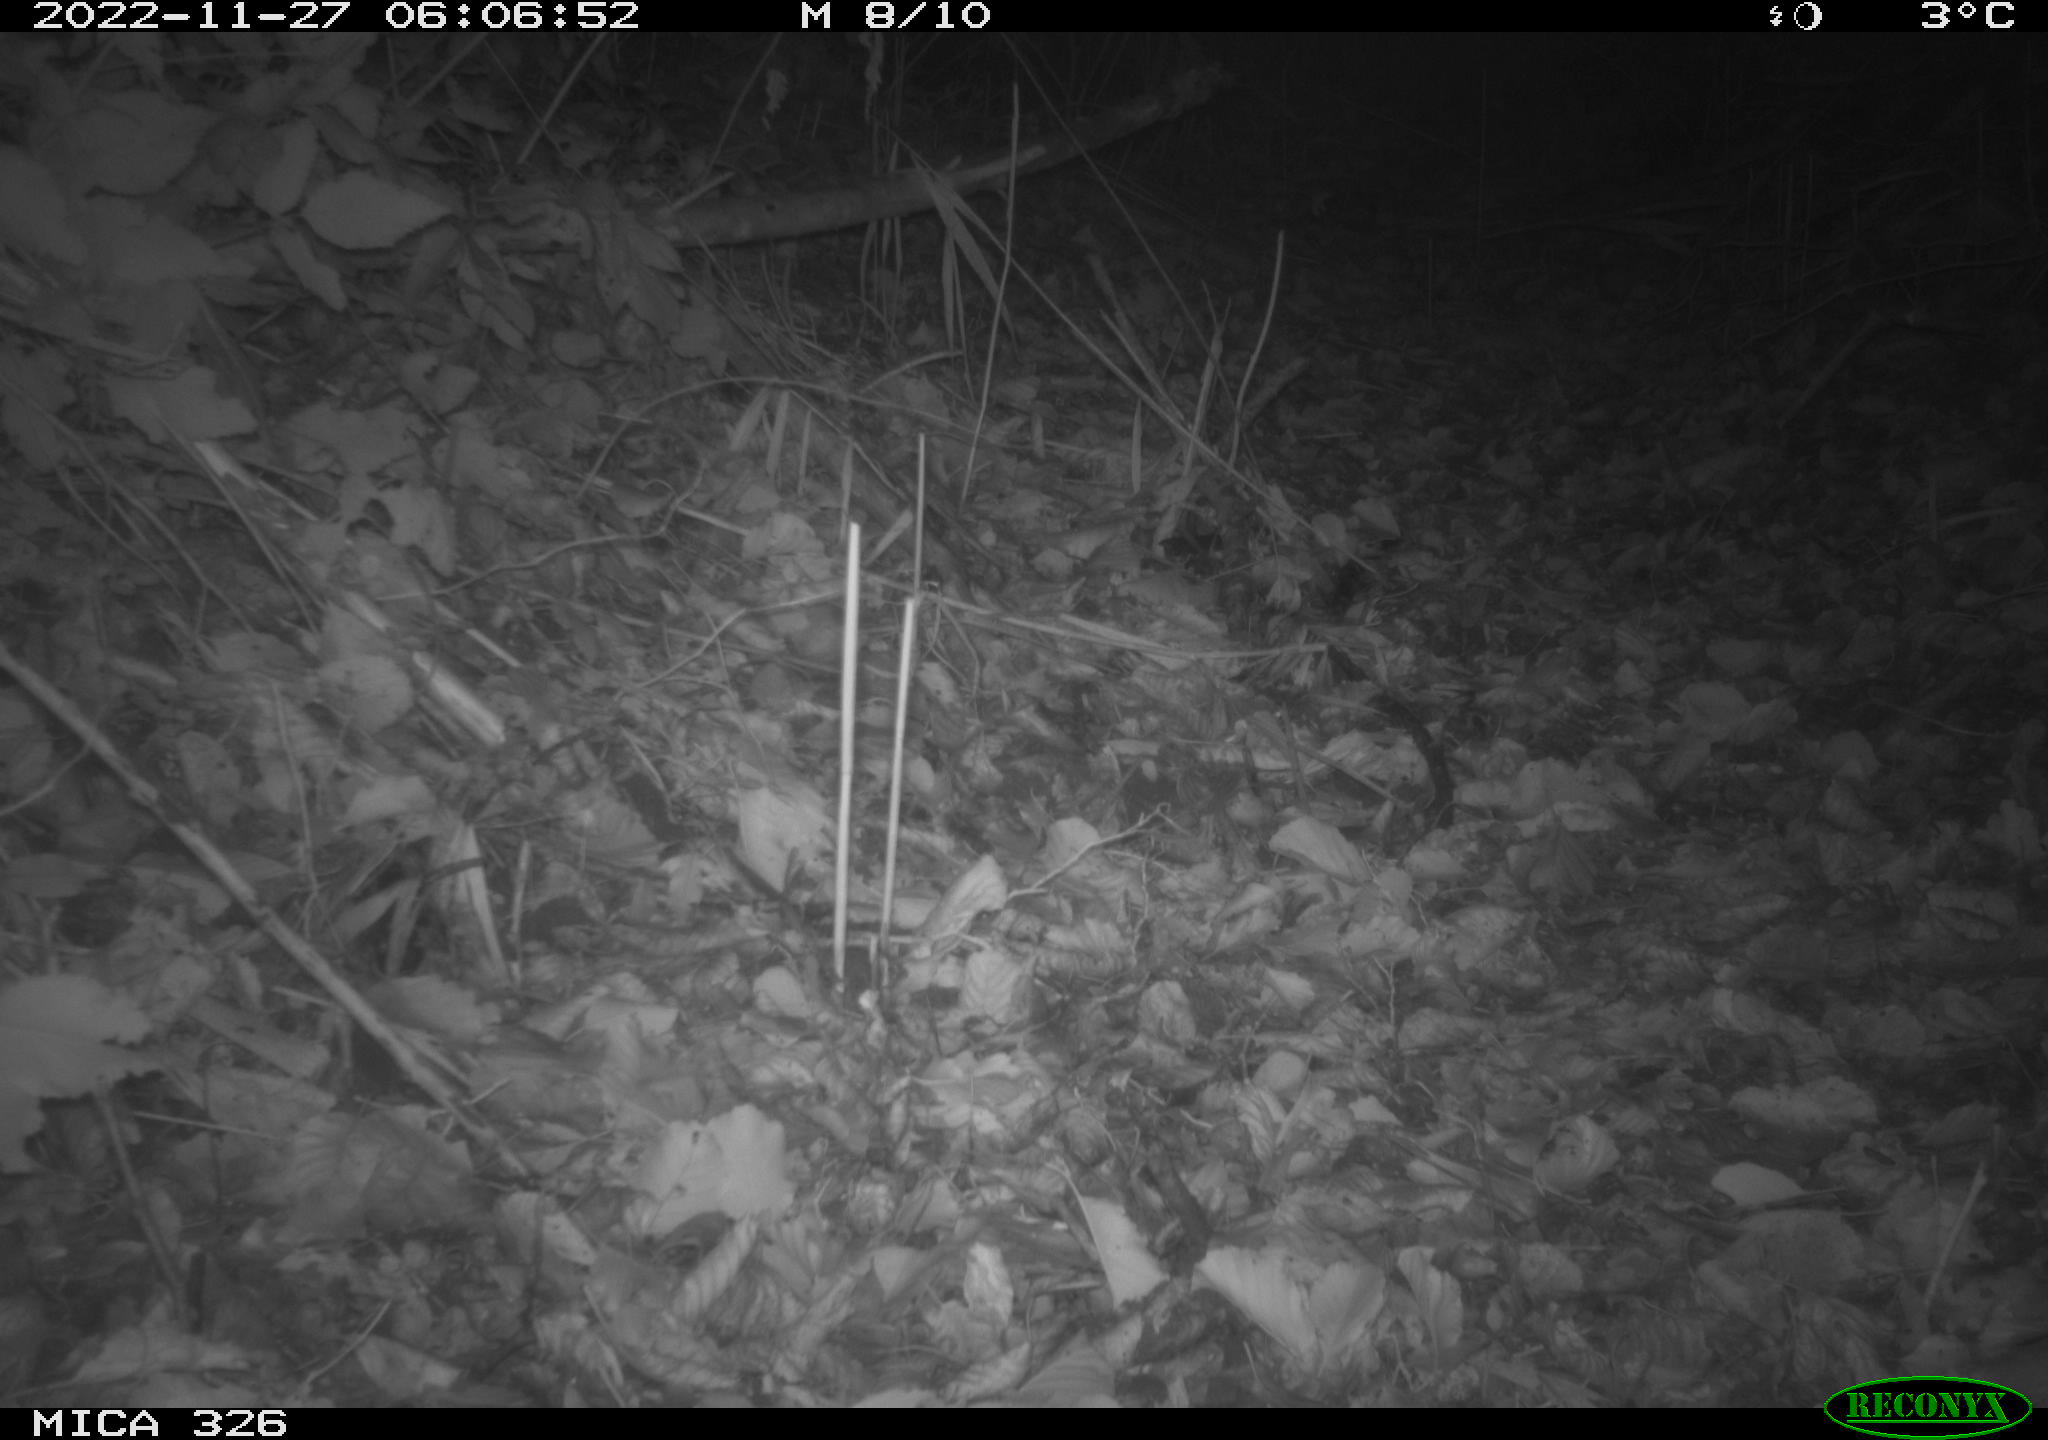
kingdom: Animalia
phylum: Chordata
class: Mammalia
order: Carnivora
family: Mustelidae
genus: Lutra
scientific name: Lutra lutra
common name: European otter
